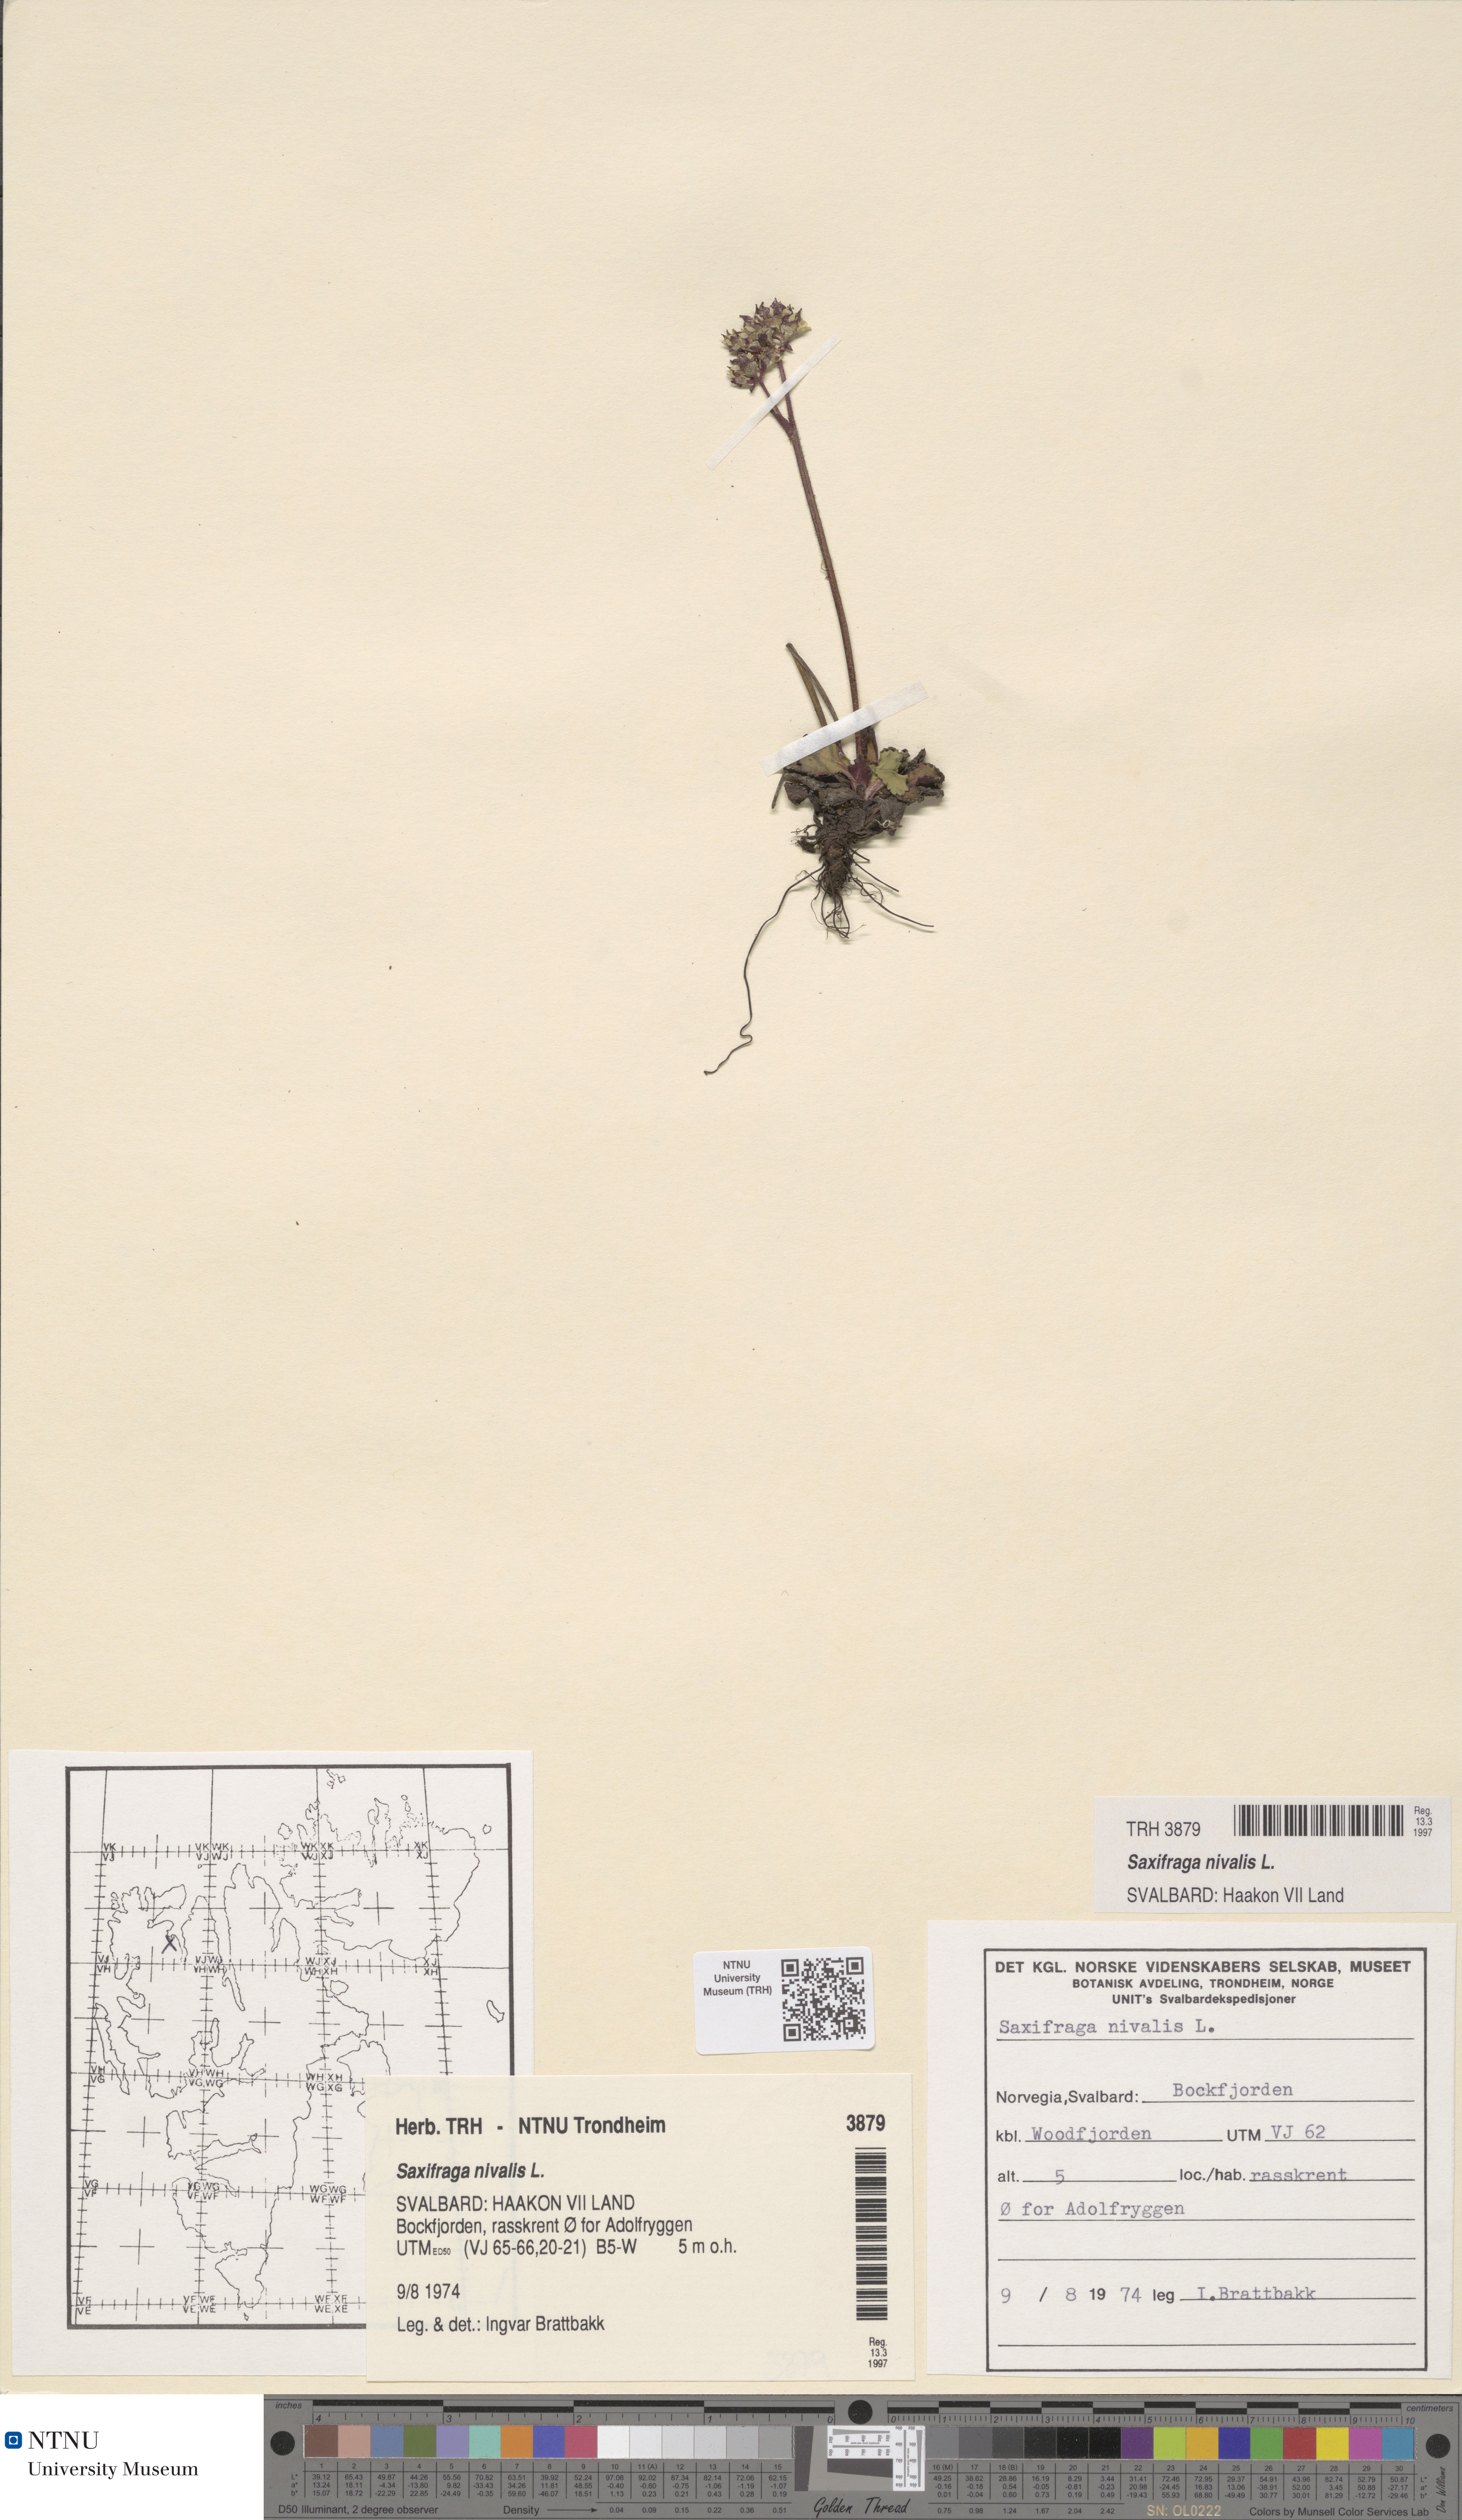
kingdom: Plantae
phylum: Tracheophyta
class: Magnoliopsida
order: Saxifragales
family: Saxifragaceae
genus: Micranthes
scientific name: Micranthes nivalis
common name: Alpine saxifrage
